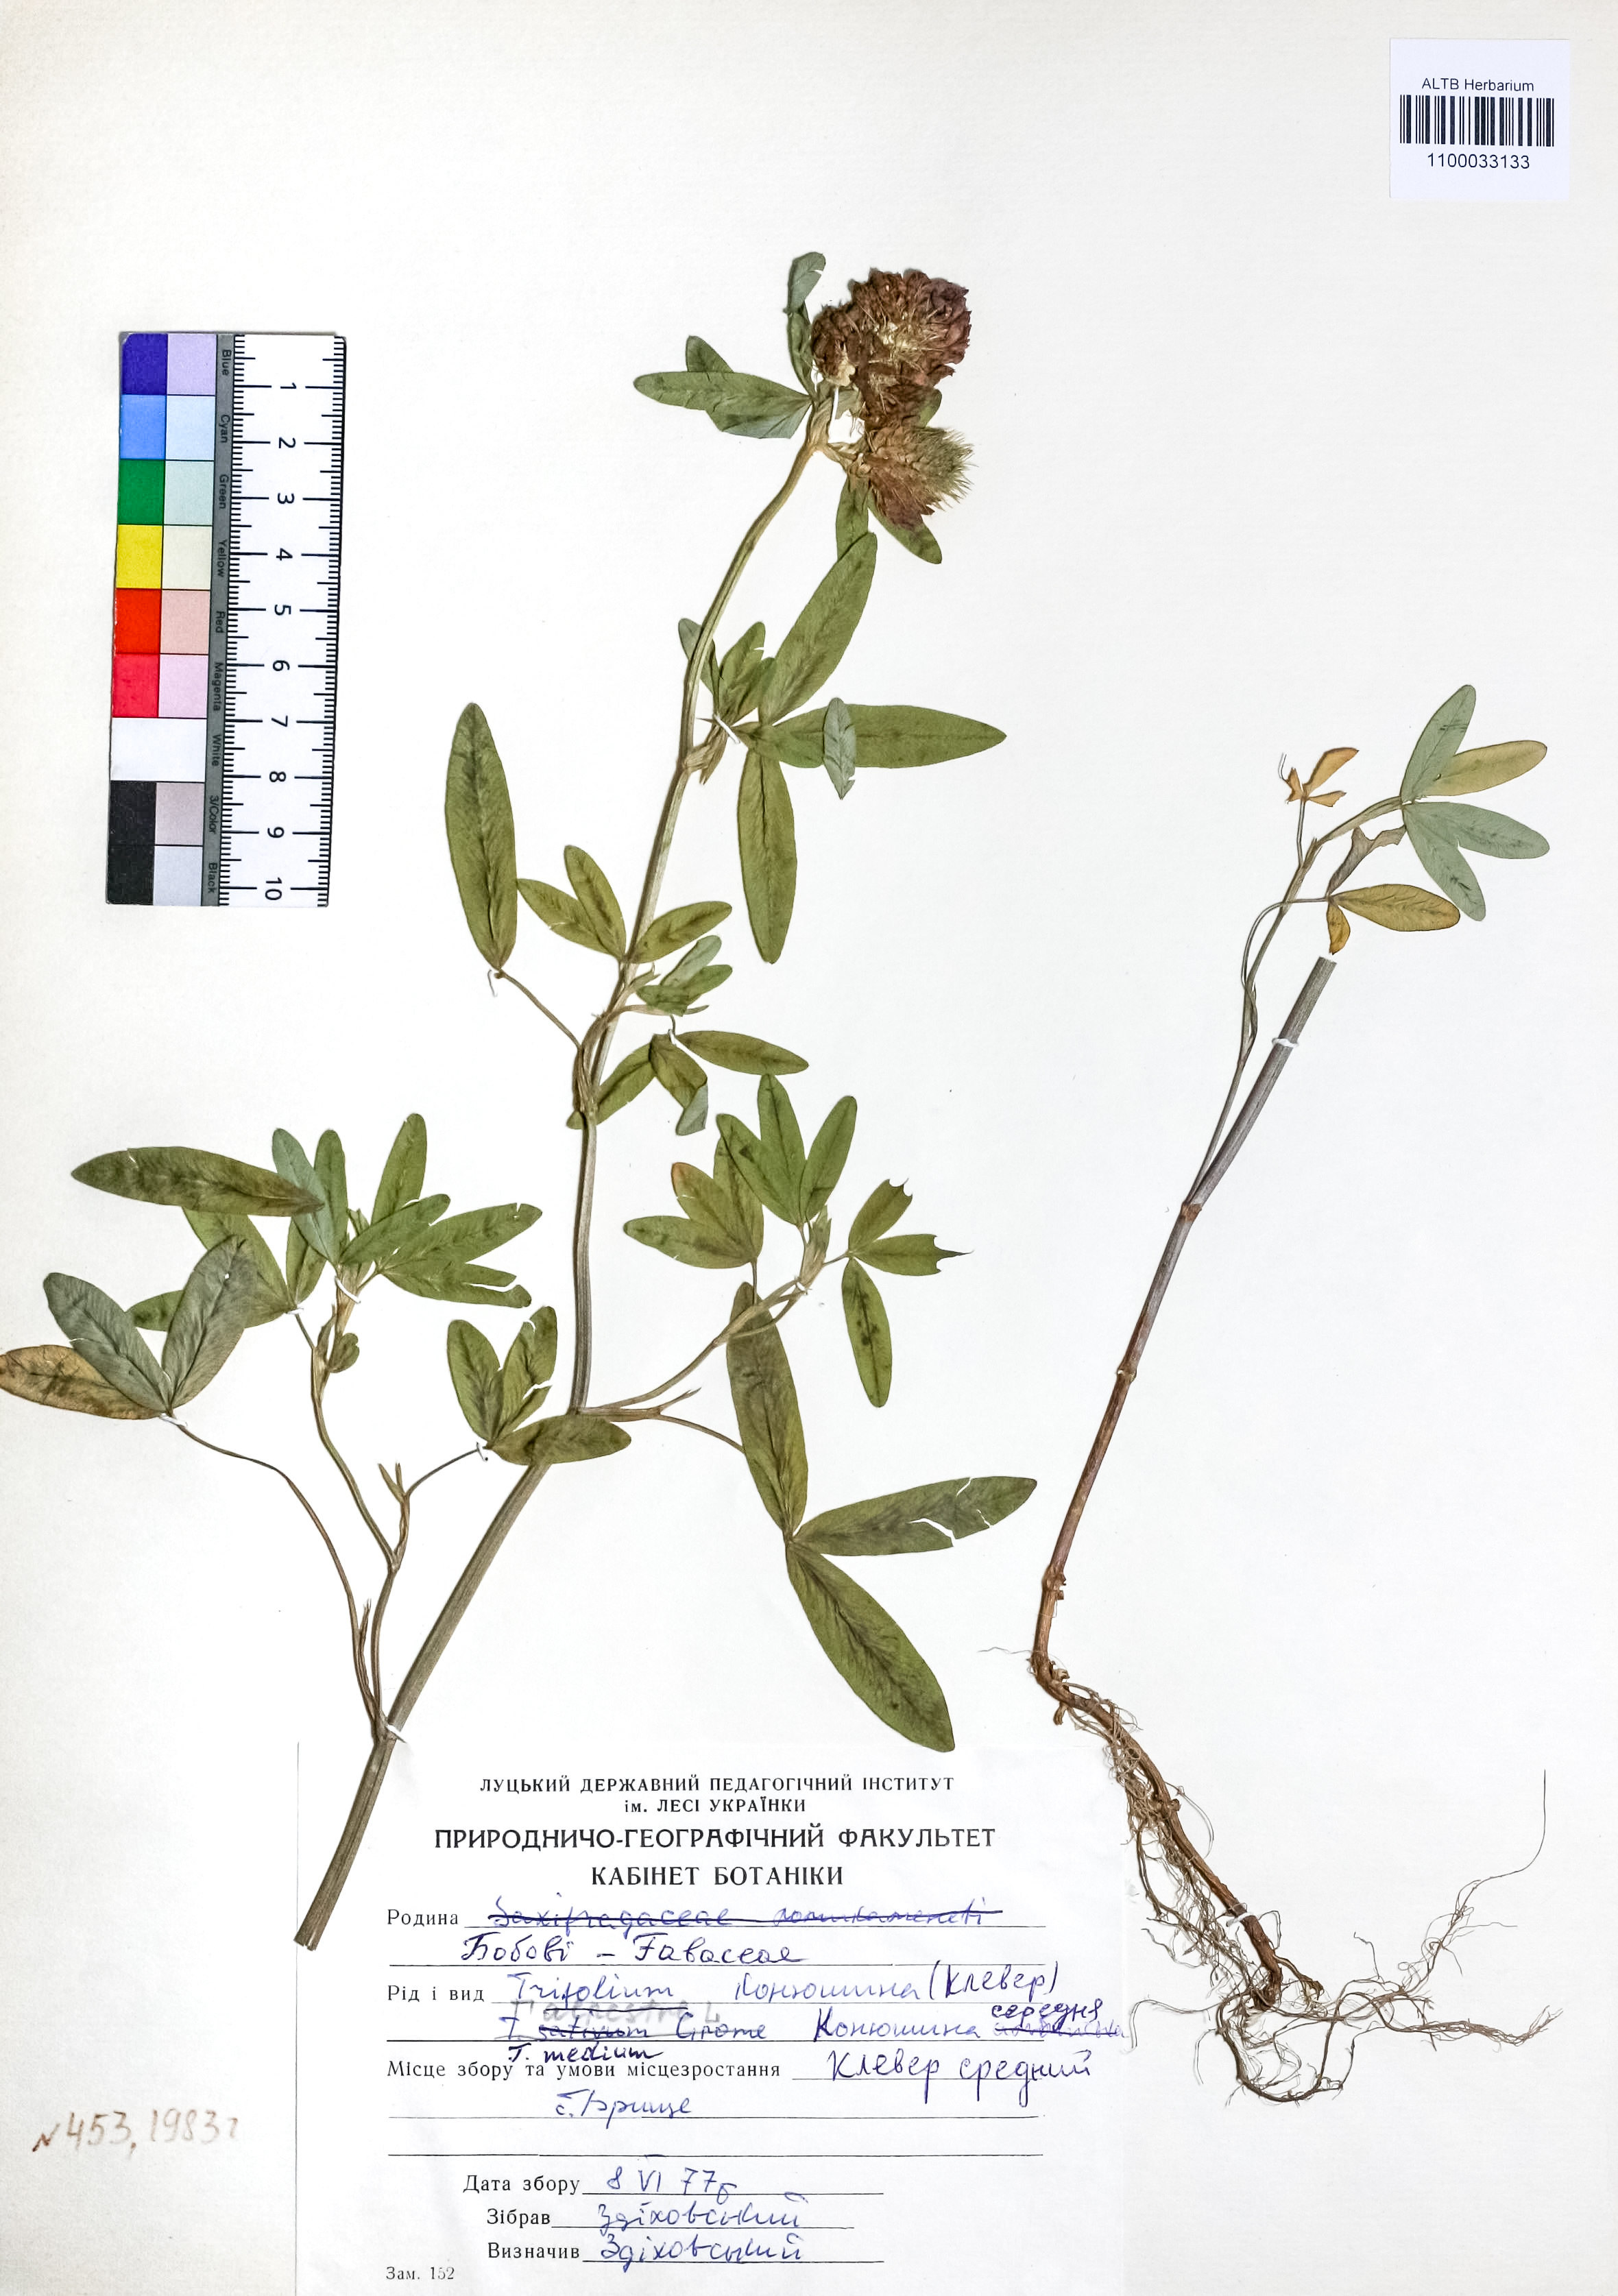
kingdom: Plantae
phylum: Tracheophyta
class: Magnoliopsida
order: Fabales
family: Fabaceae
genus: Trifolium
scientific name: Trifolium medium
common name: Zigzag clover
